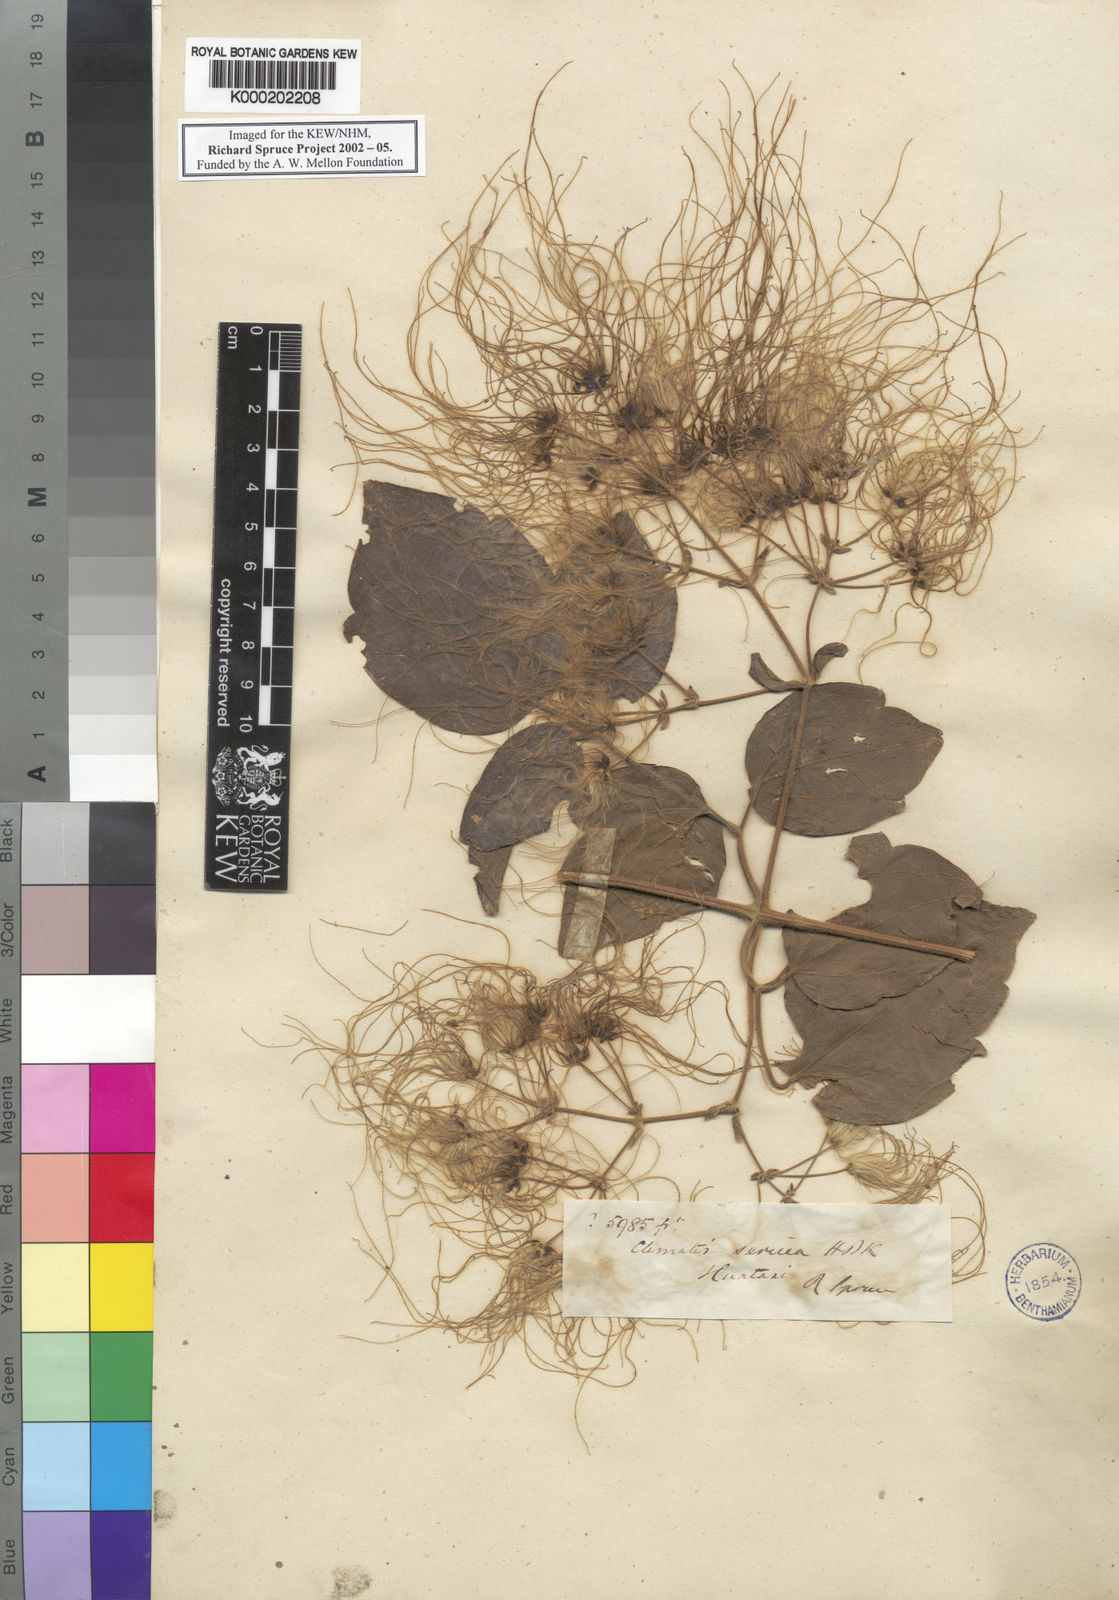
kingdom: Plantae
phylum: Tracheophyta
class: Magnoliopsida
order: Ranunculales
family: Ranunculaceae
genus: Clematis
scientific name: Clematis ochroleuca
